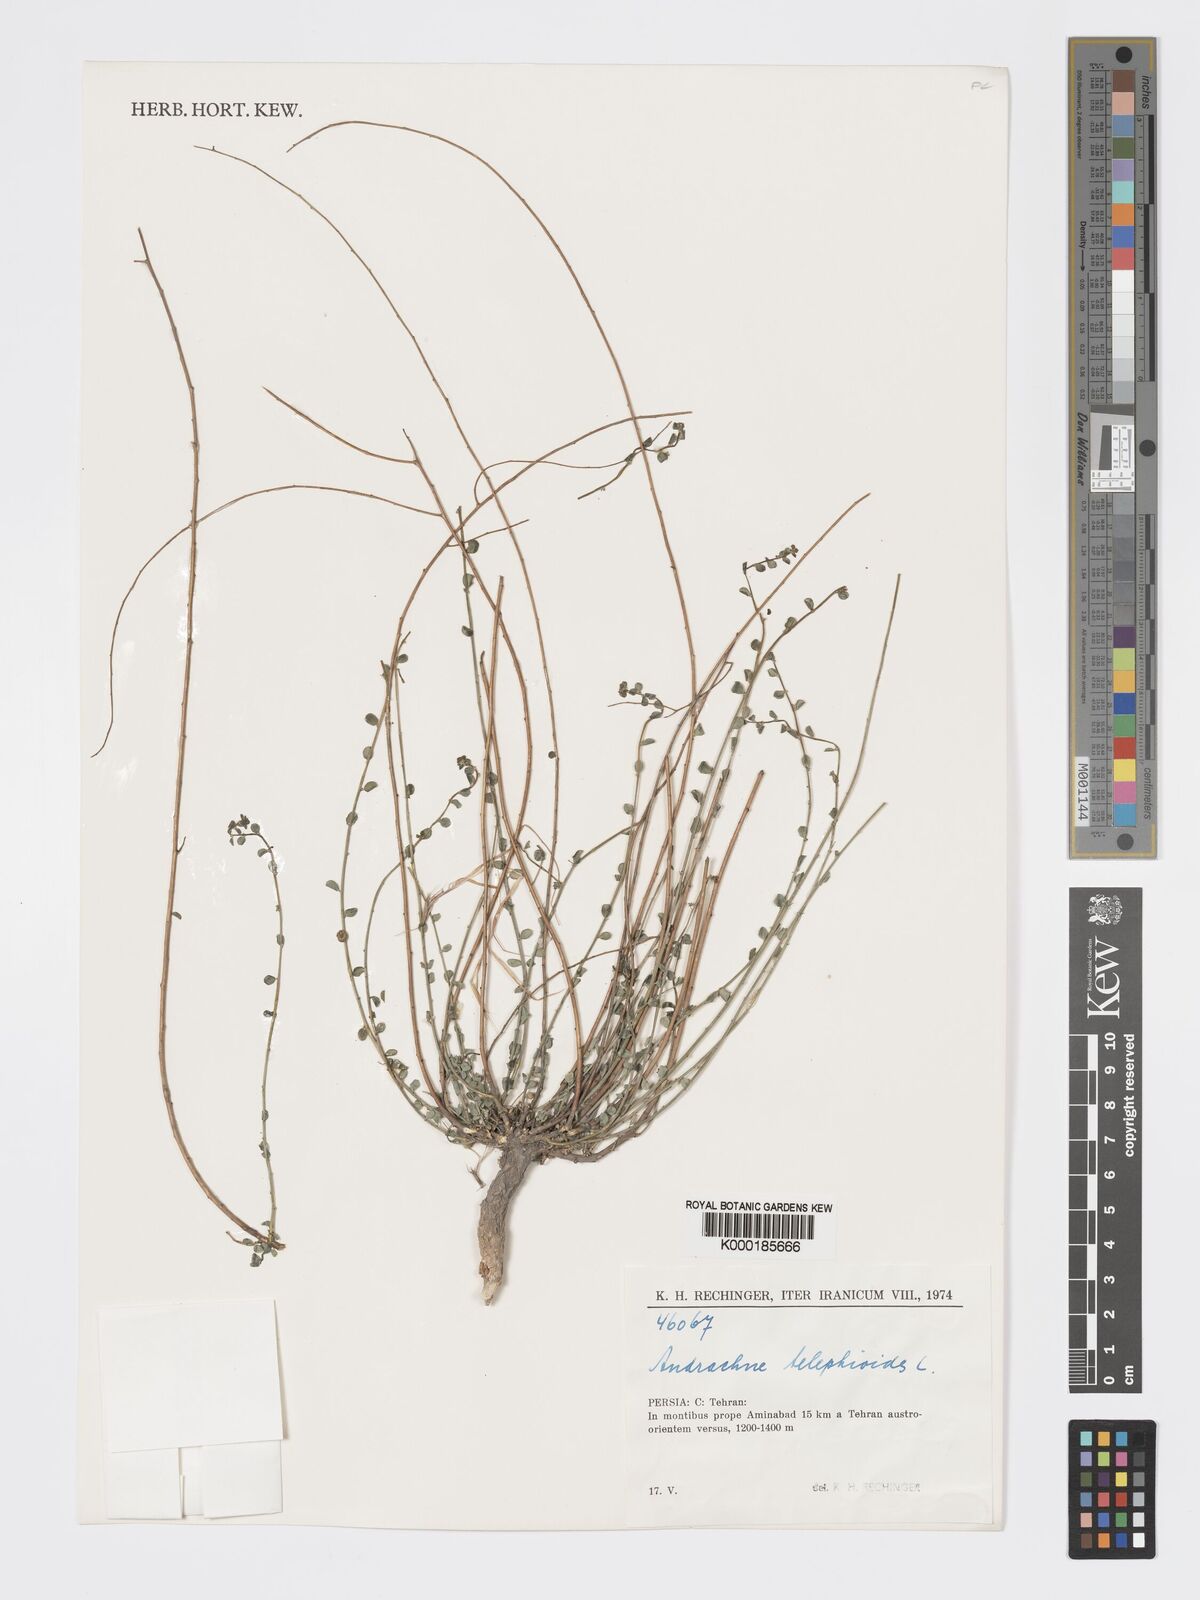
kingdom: Plantae
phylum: Tracheophyta
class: Magnoliopsida
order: Malpighiales
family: Phyllanthaceae
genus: Andrachne
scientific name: Andrachne telephioides
